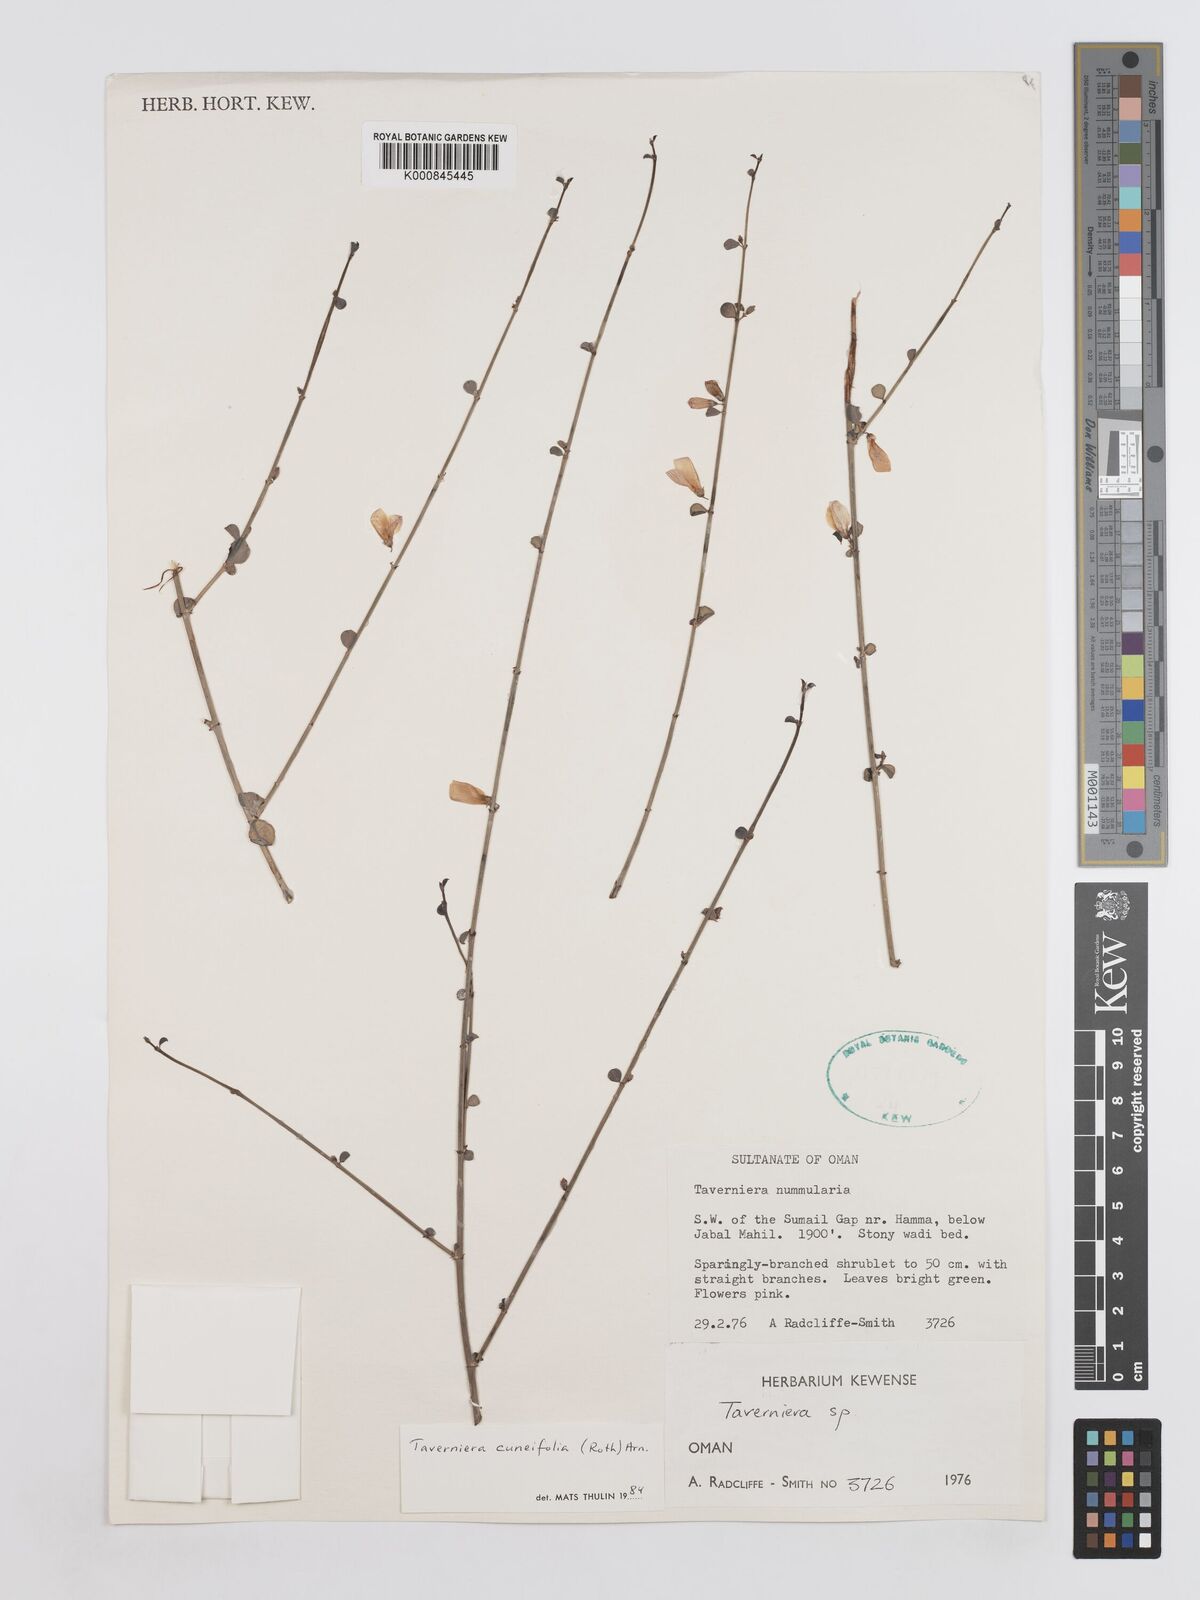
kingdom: Plantae
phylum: Tracheophyta
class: Magnoliopsida
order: Fabales
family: Fabaceae
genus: Taverniera
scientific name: Taverniera
